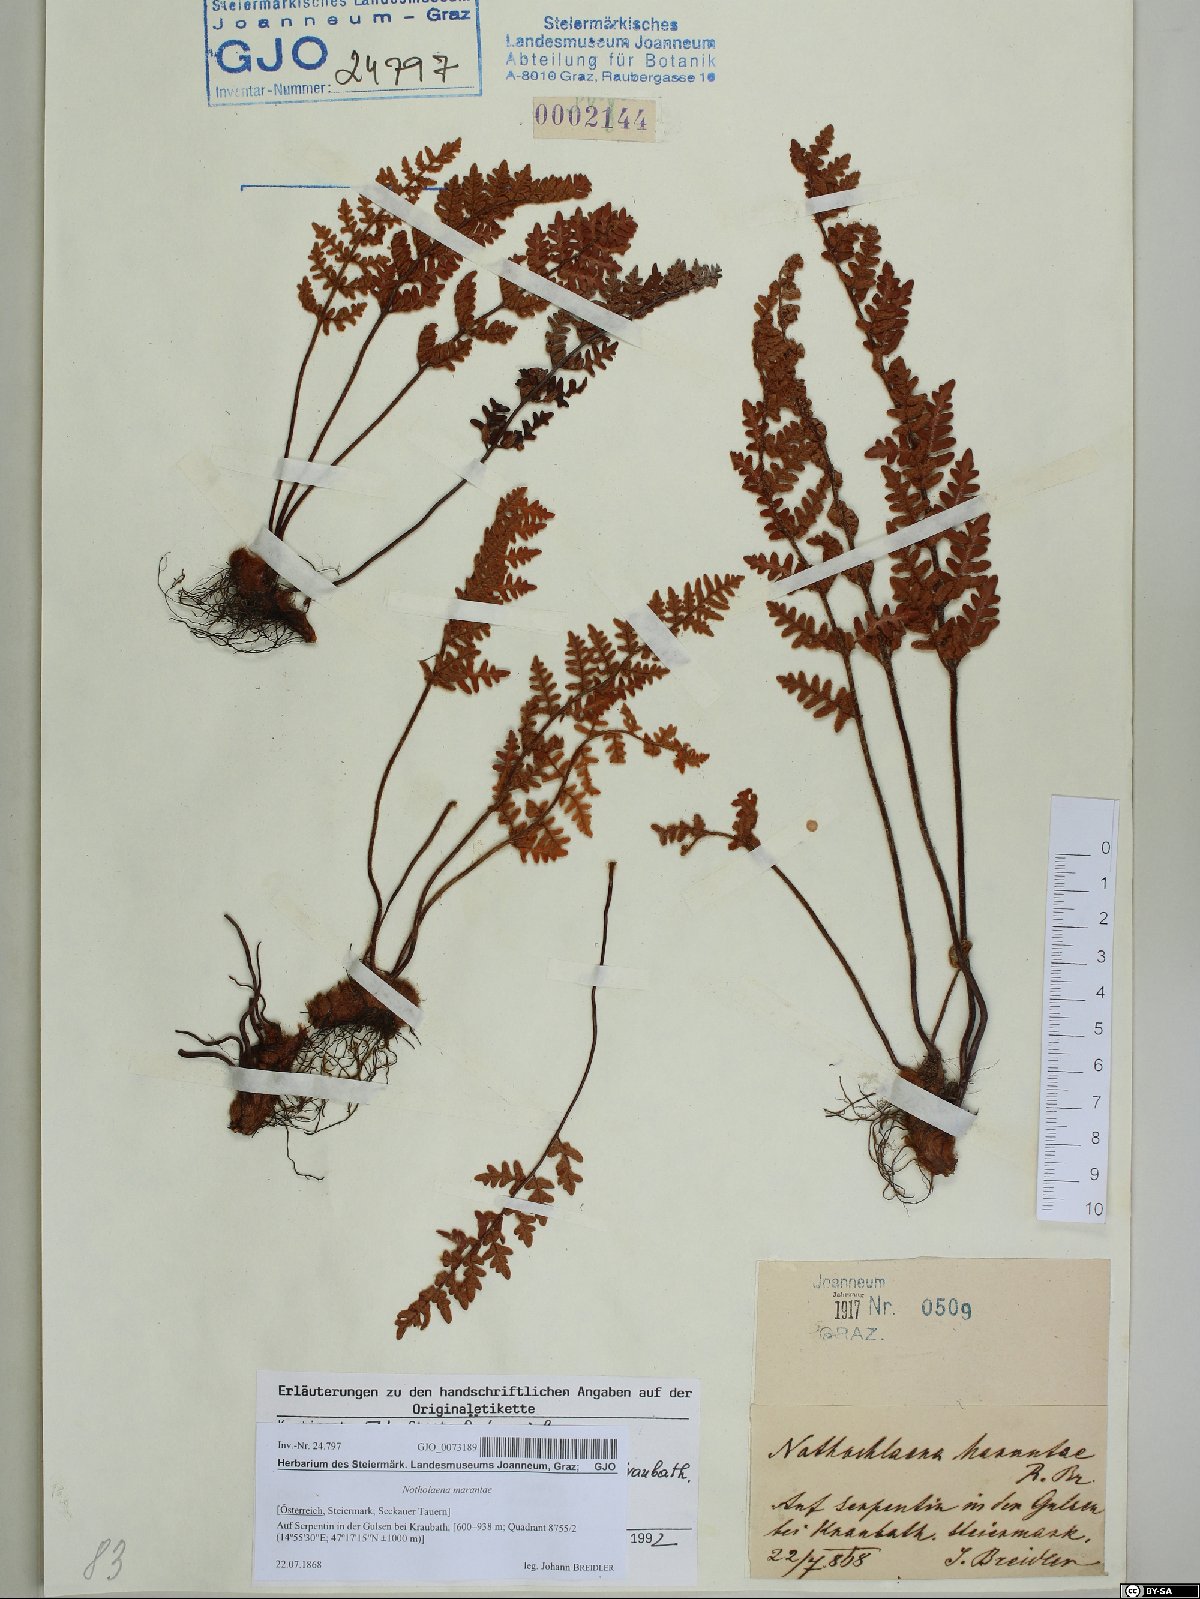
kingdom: Plantae
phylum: Tracheophyta
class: Polypodiopsida
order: Polypodiales
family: Pteridaceae
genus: Paragymnopteris
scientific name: Paragymnopteris marantae
